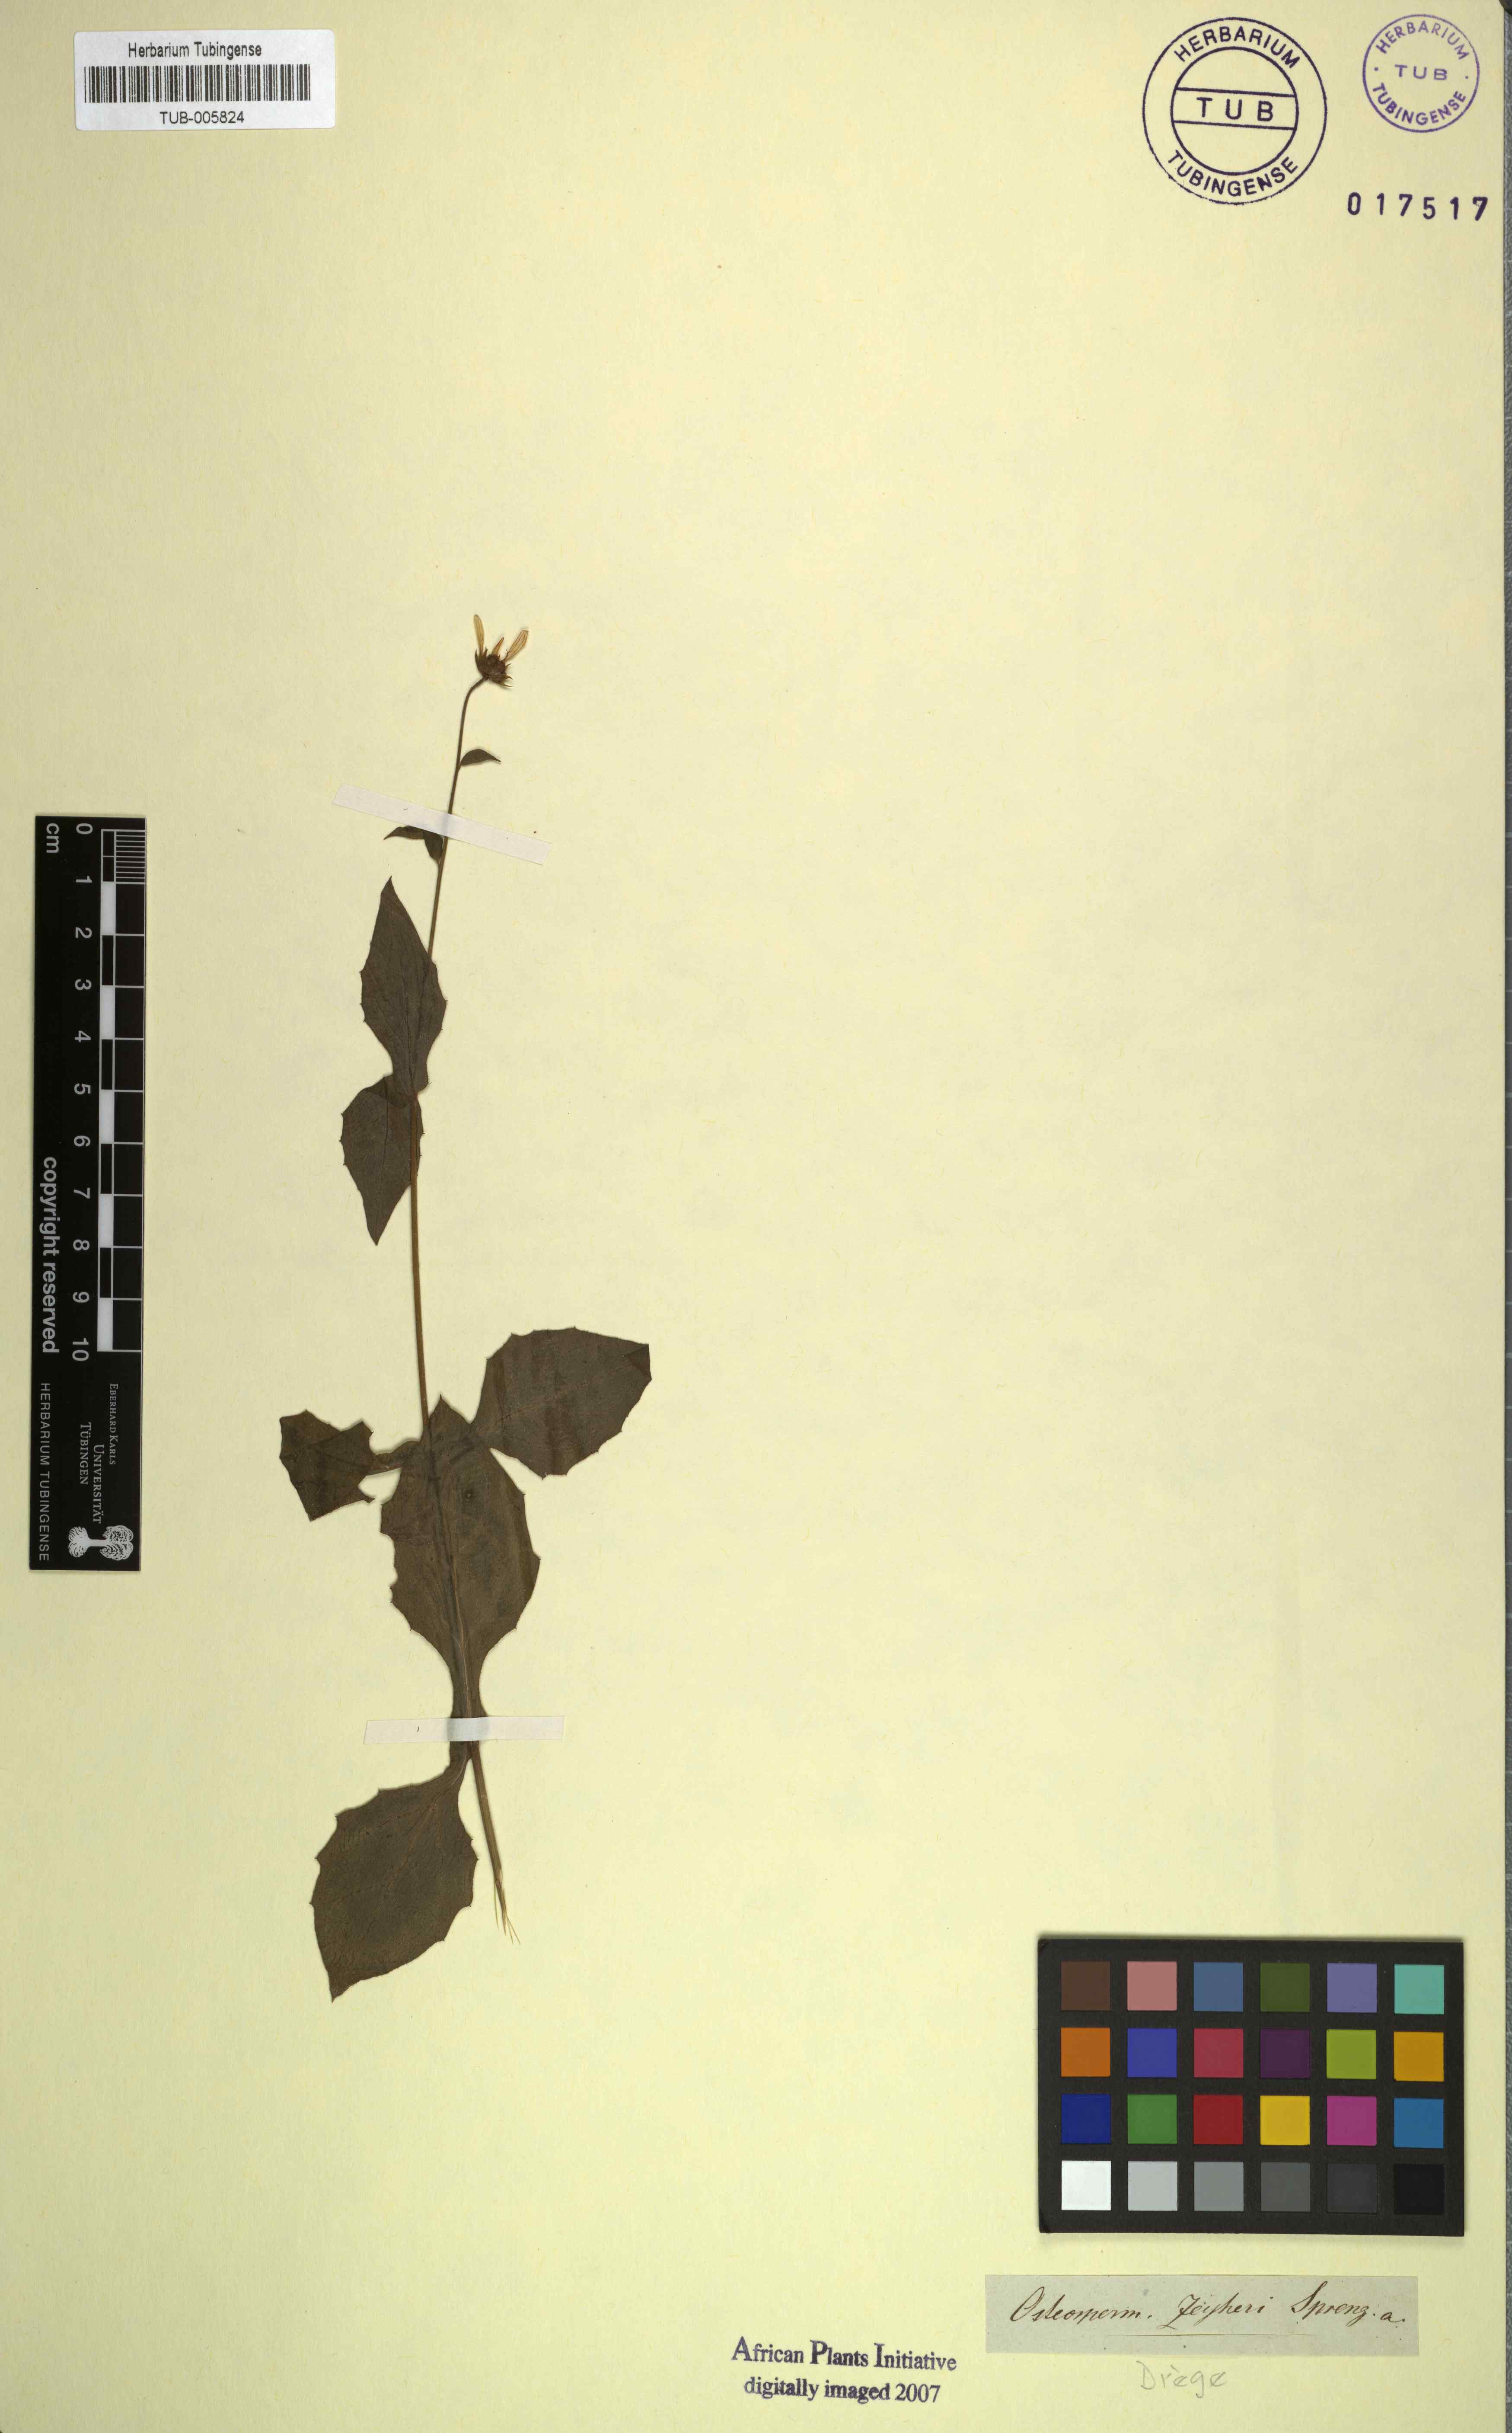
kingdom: Plantae
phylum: Tracheophyta
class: Magnoliopsida
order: Asterales
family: Asteraceae
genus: Osteospermum
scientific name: Osteospermum herbaceum
